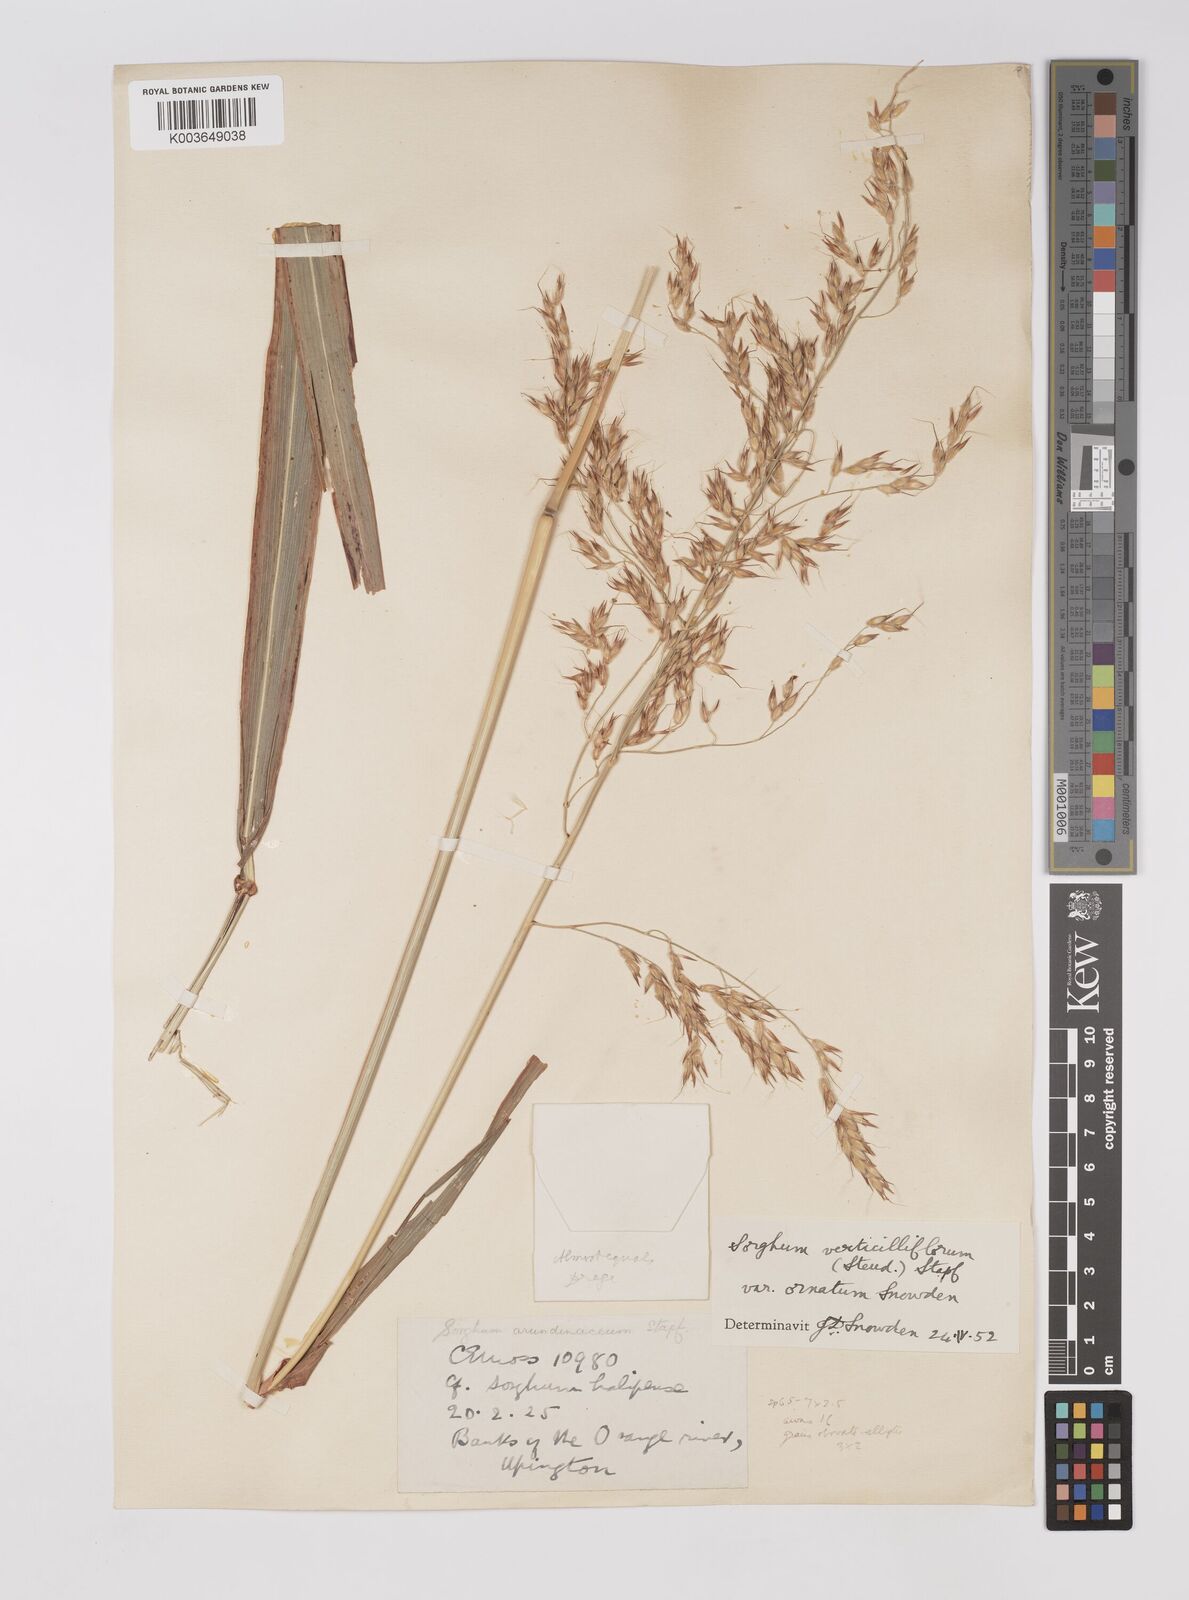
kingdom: Plantae
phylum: Tracheophyta
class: Liliopsida
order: Poales
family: Poaceae
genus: Sorghum
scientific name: Sorghum arundinaceum
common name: Sorghum
